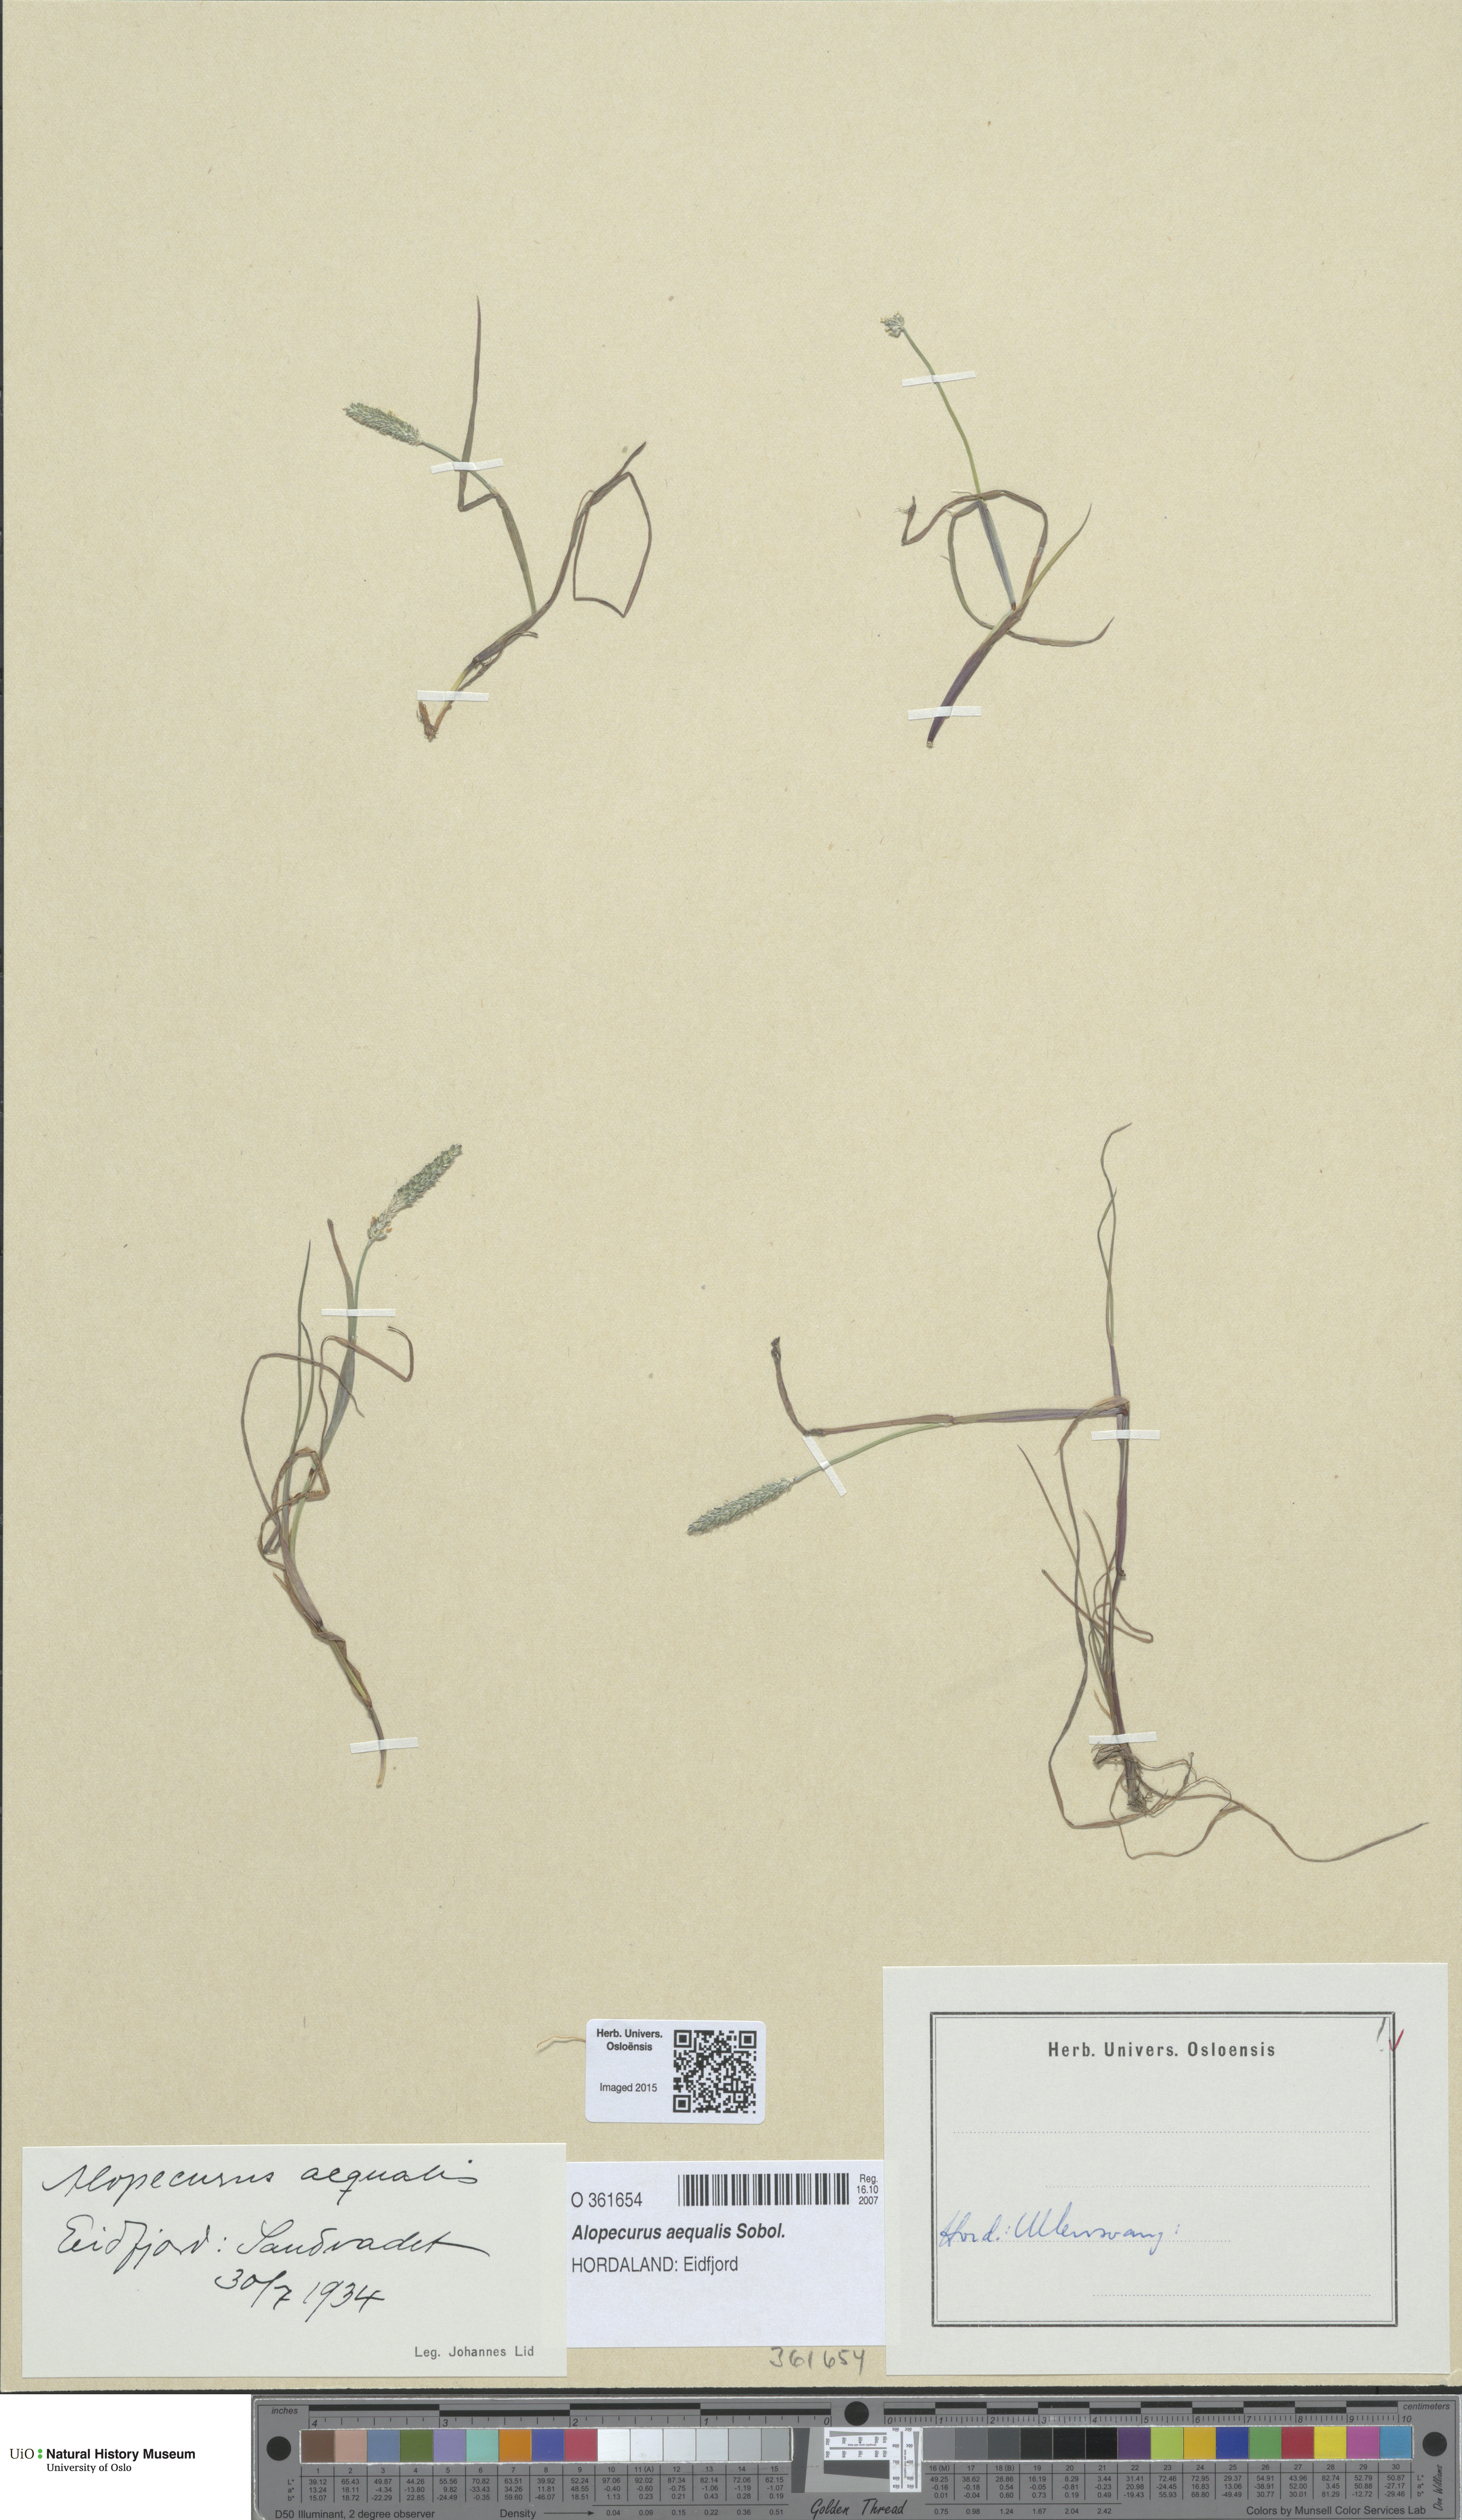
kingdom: Plantae
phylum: Tracheophyta
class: Liliopsida
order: Poales
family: Poaceae
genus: Alopecurus
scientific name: Alopecurus aequalis
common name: Orange foxtail
